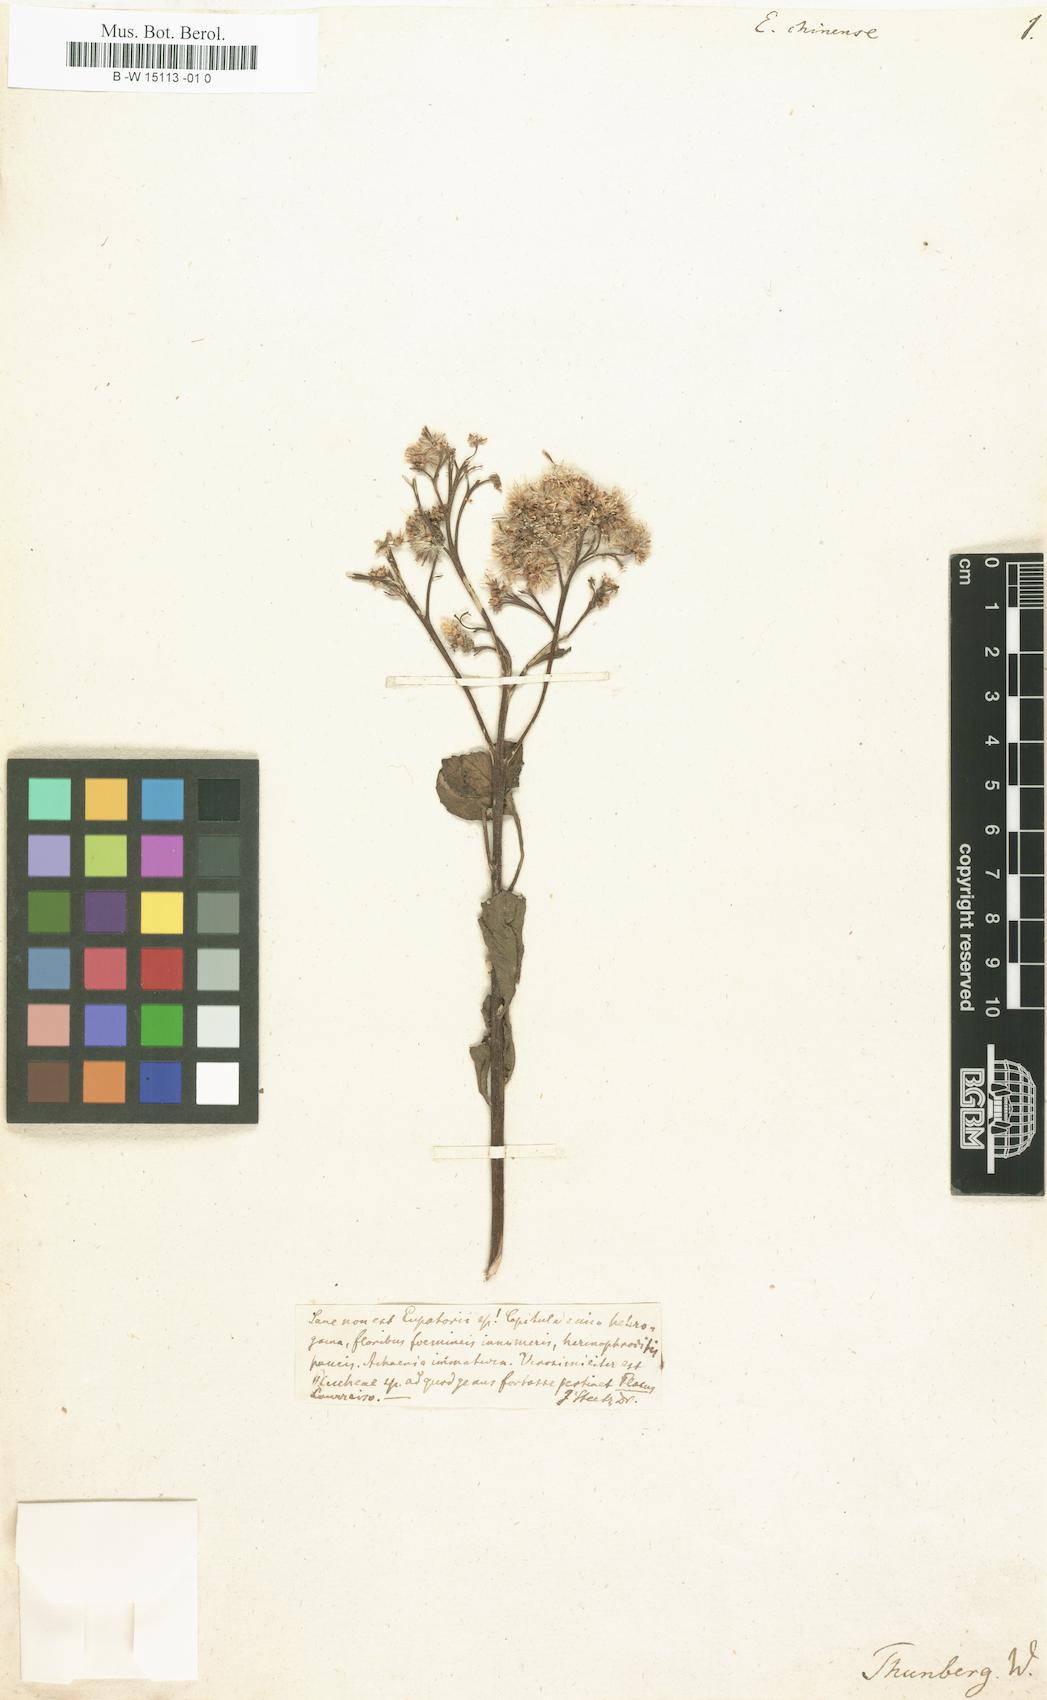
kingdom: Plantae
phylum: Tracheophyta
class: Magnoliopsida
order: Asterales
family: Asteraceae
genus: Eupatorium
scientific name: Eupatorium chinense
